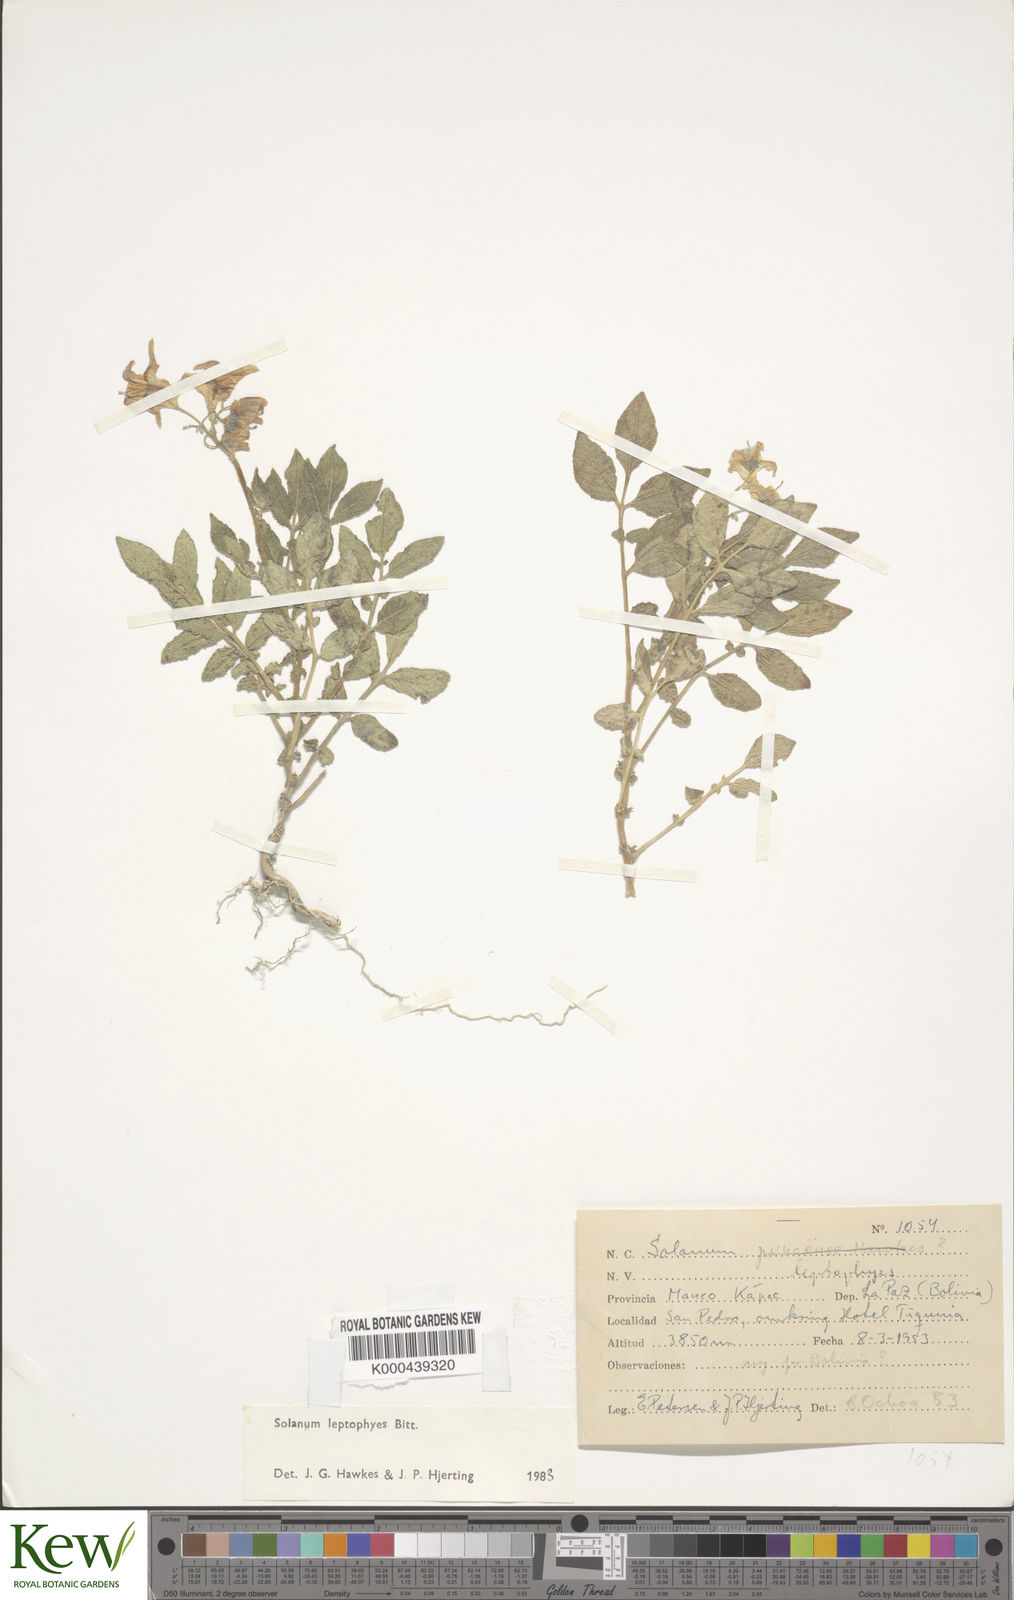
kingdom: Plantae
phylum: Tracheophyta
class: Magnoliopsida
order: Solanales
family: Solanaceae
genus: Solanum
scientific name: Solanum brevicaule
